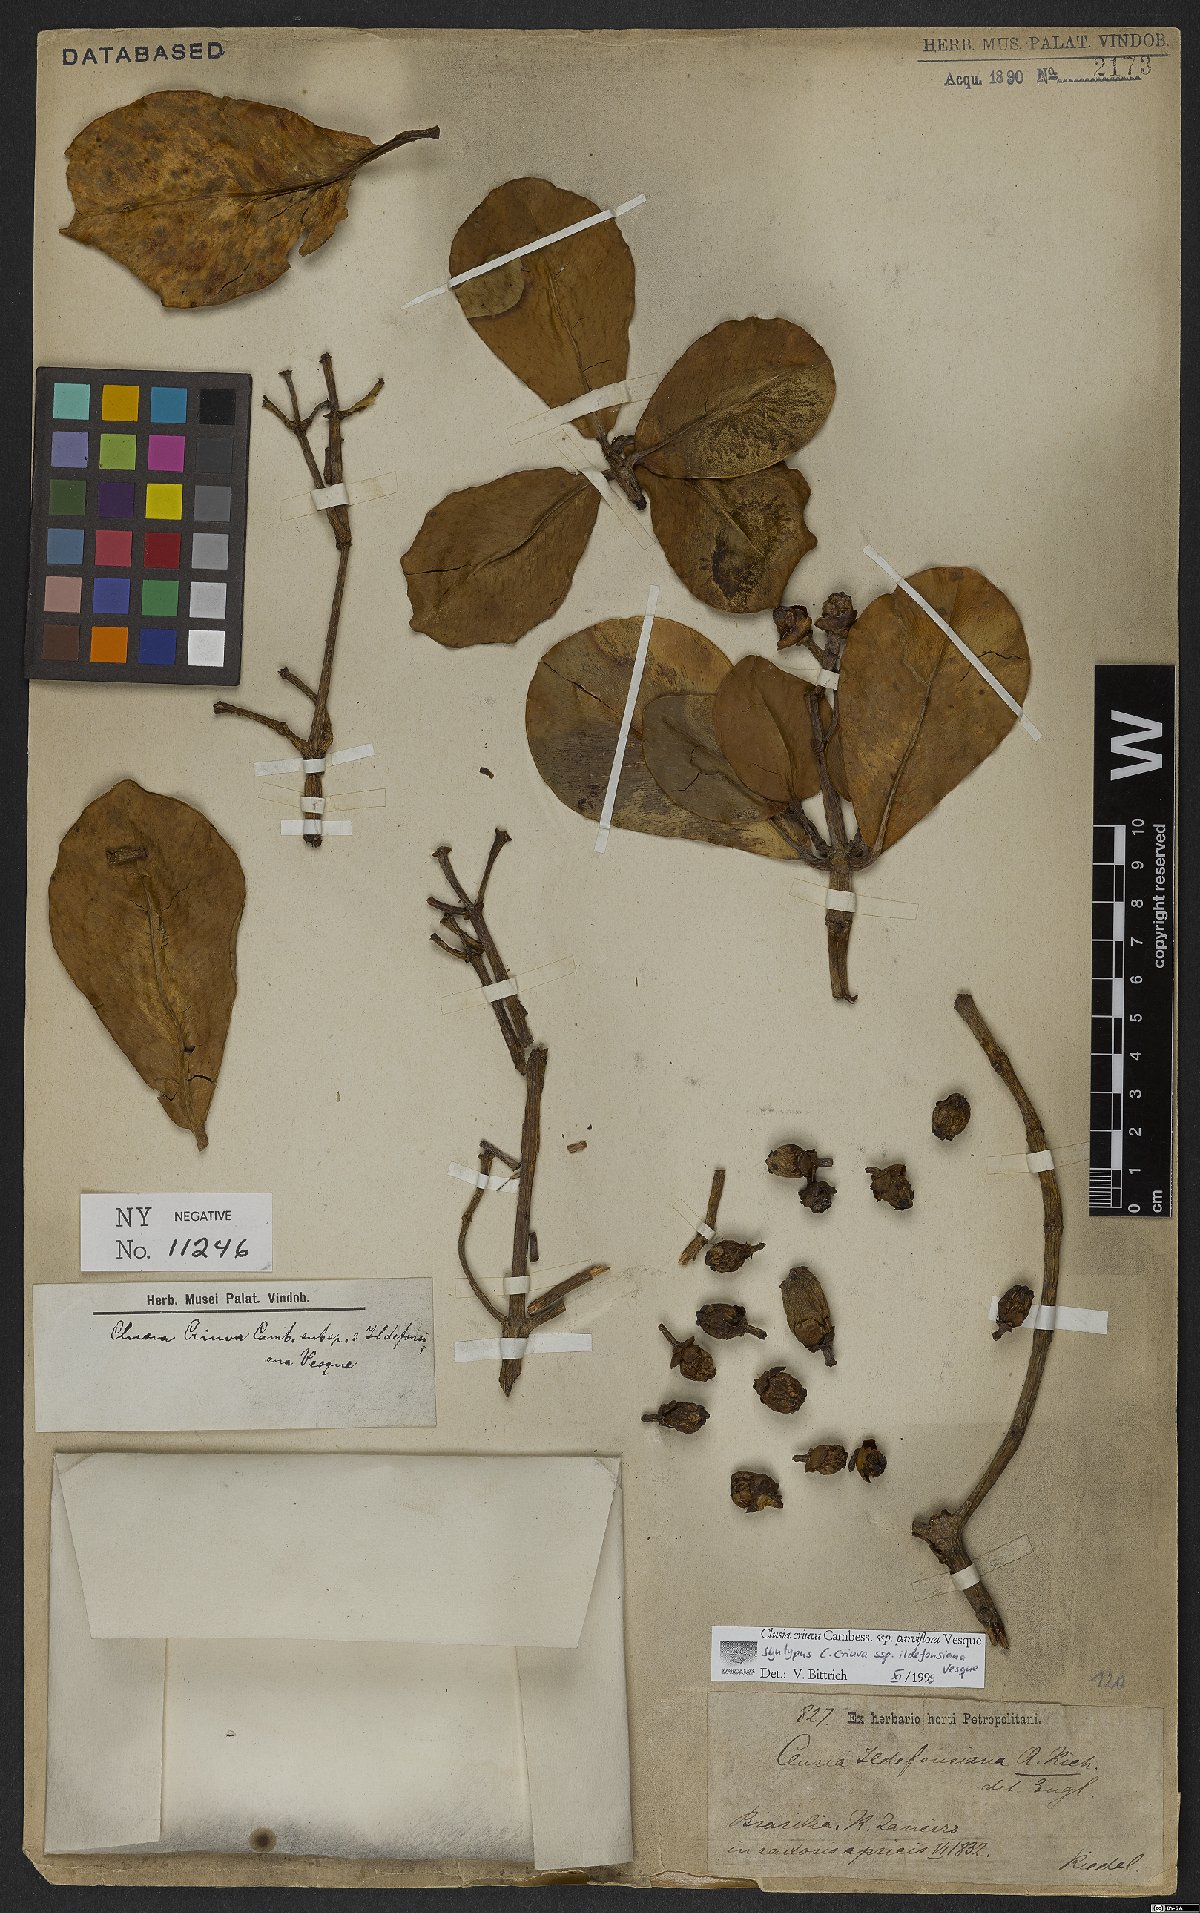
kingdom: Plantae
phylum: Tracheophyta
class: Magnoliopsida
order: Malpighiales
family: Clusiaceae
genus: Clusia
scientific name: Clusia criuva
